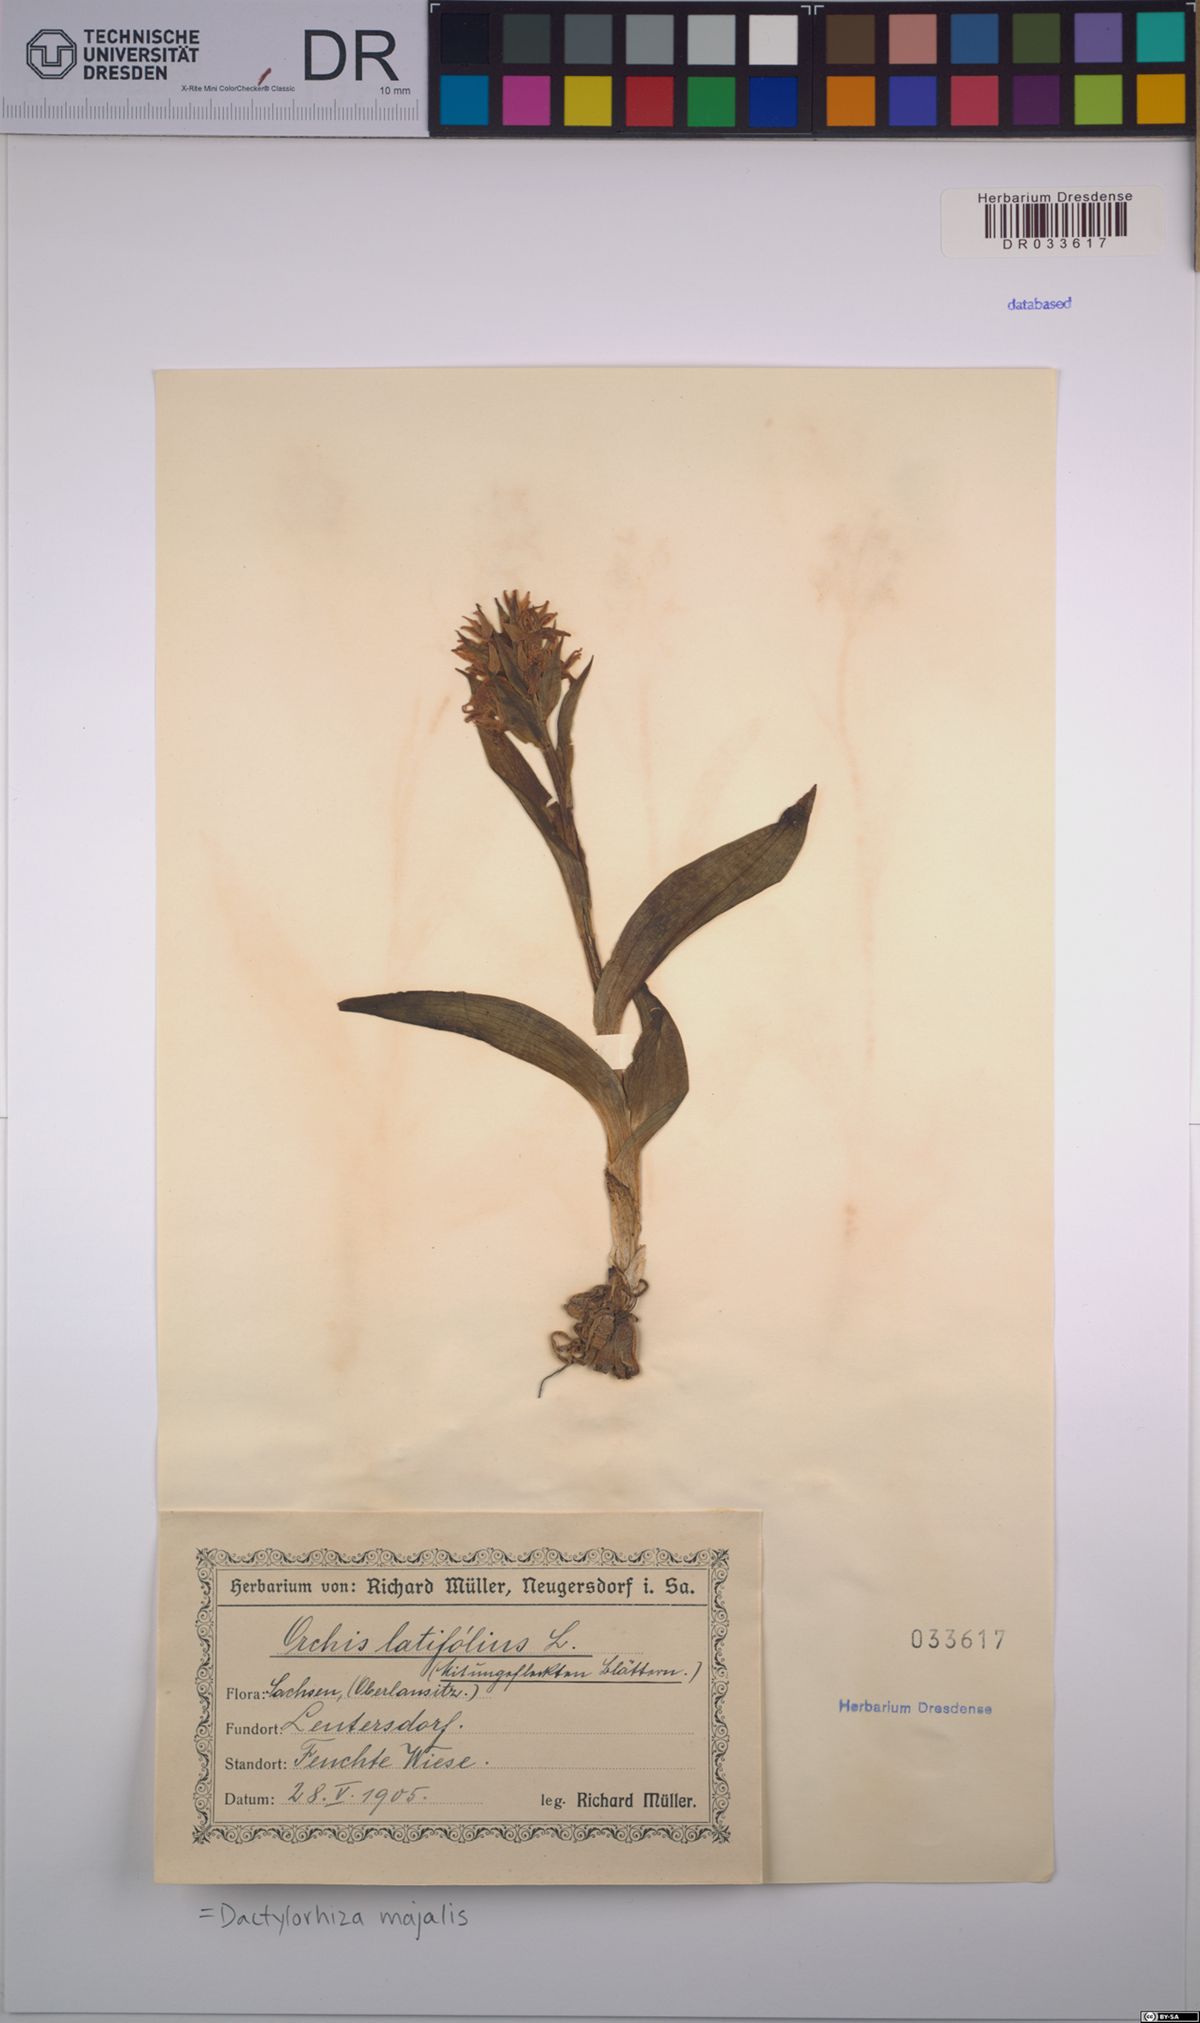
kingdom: Plantae
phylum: Tracheophyta
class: Liliopsida
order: Asparagales
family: Orchidaceae
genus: Dactylorhiza
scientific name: Dactylorhiza majalis
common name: Marsh orchid
